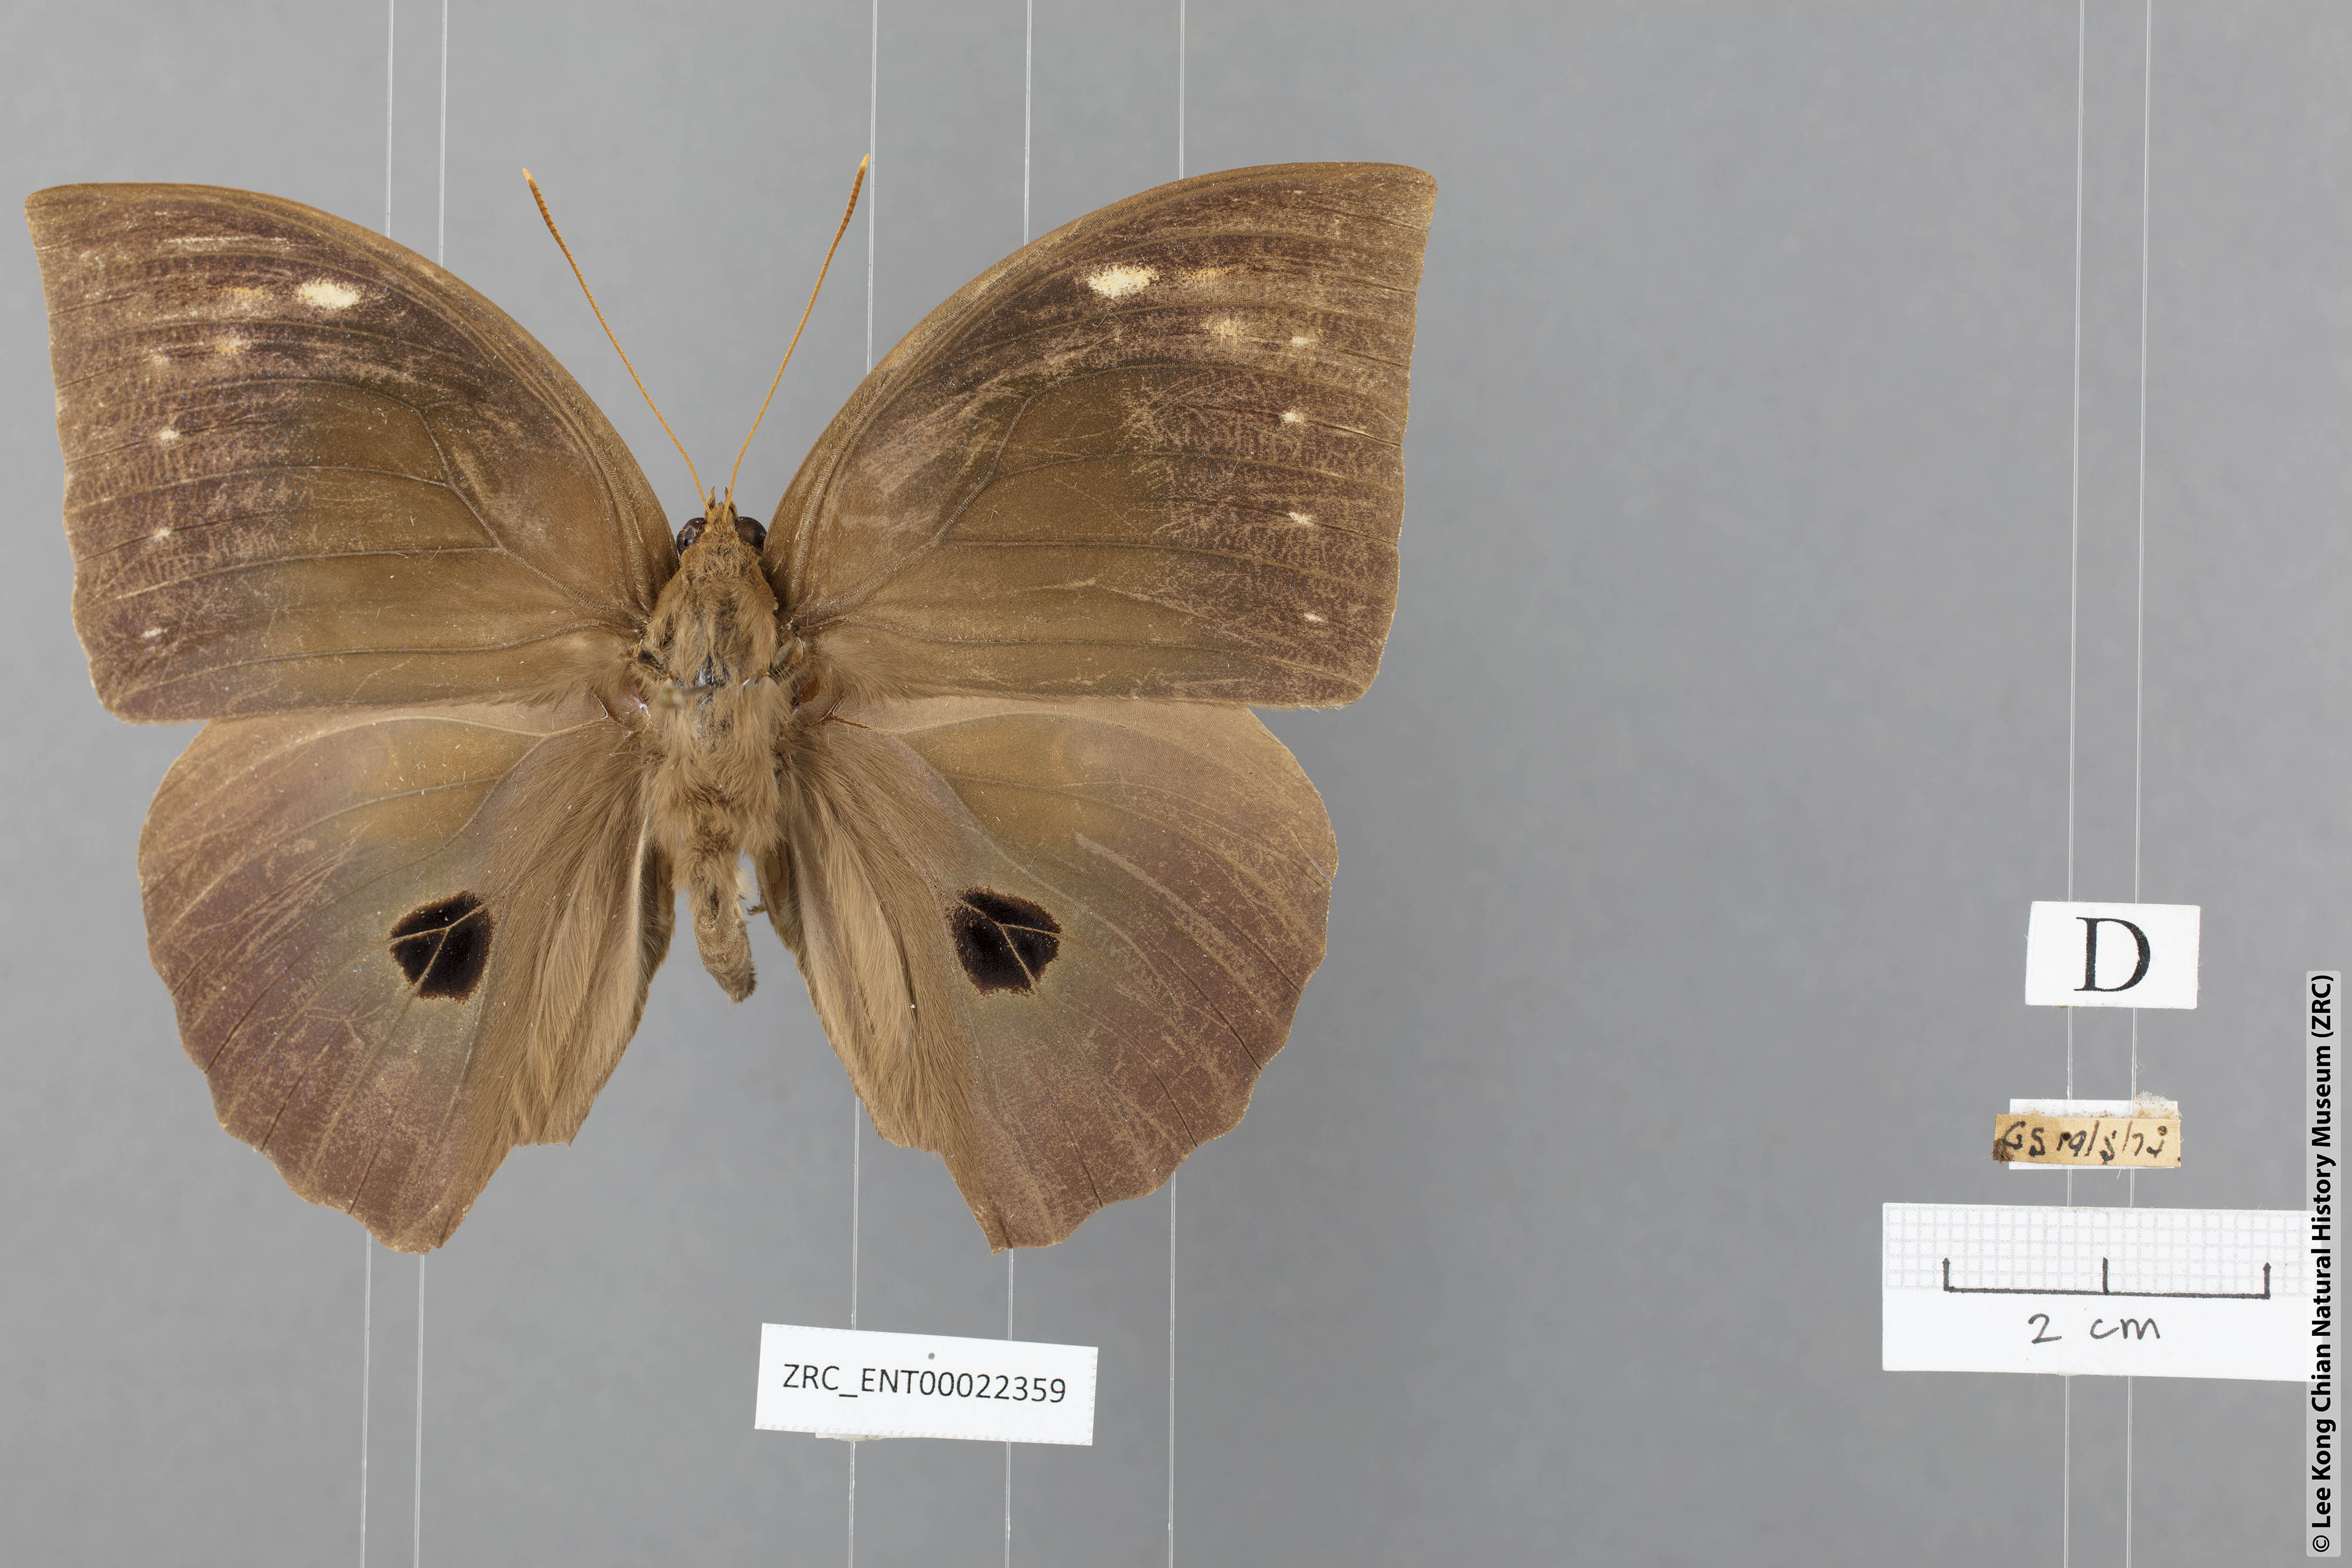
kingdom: Animalia
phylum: Arthropoda
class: Insecta
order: Lepidoptera
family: Nymphalidae
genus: Discophora
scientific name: Discophora timora
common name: Great duffer
